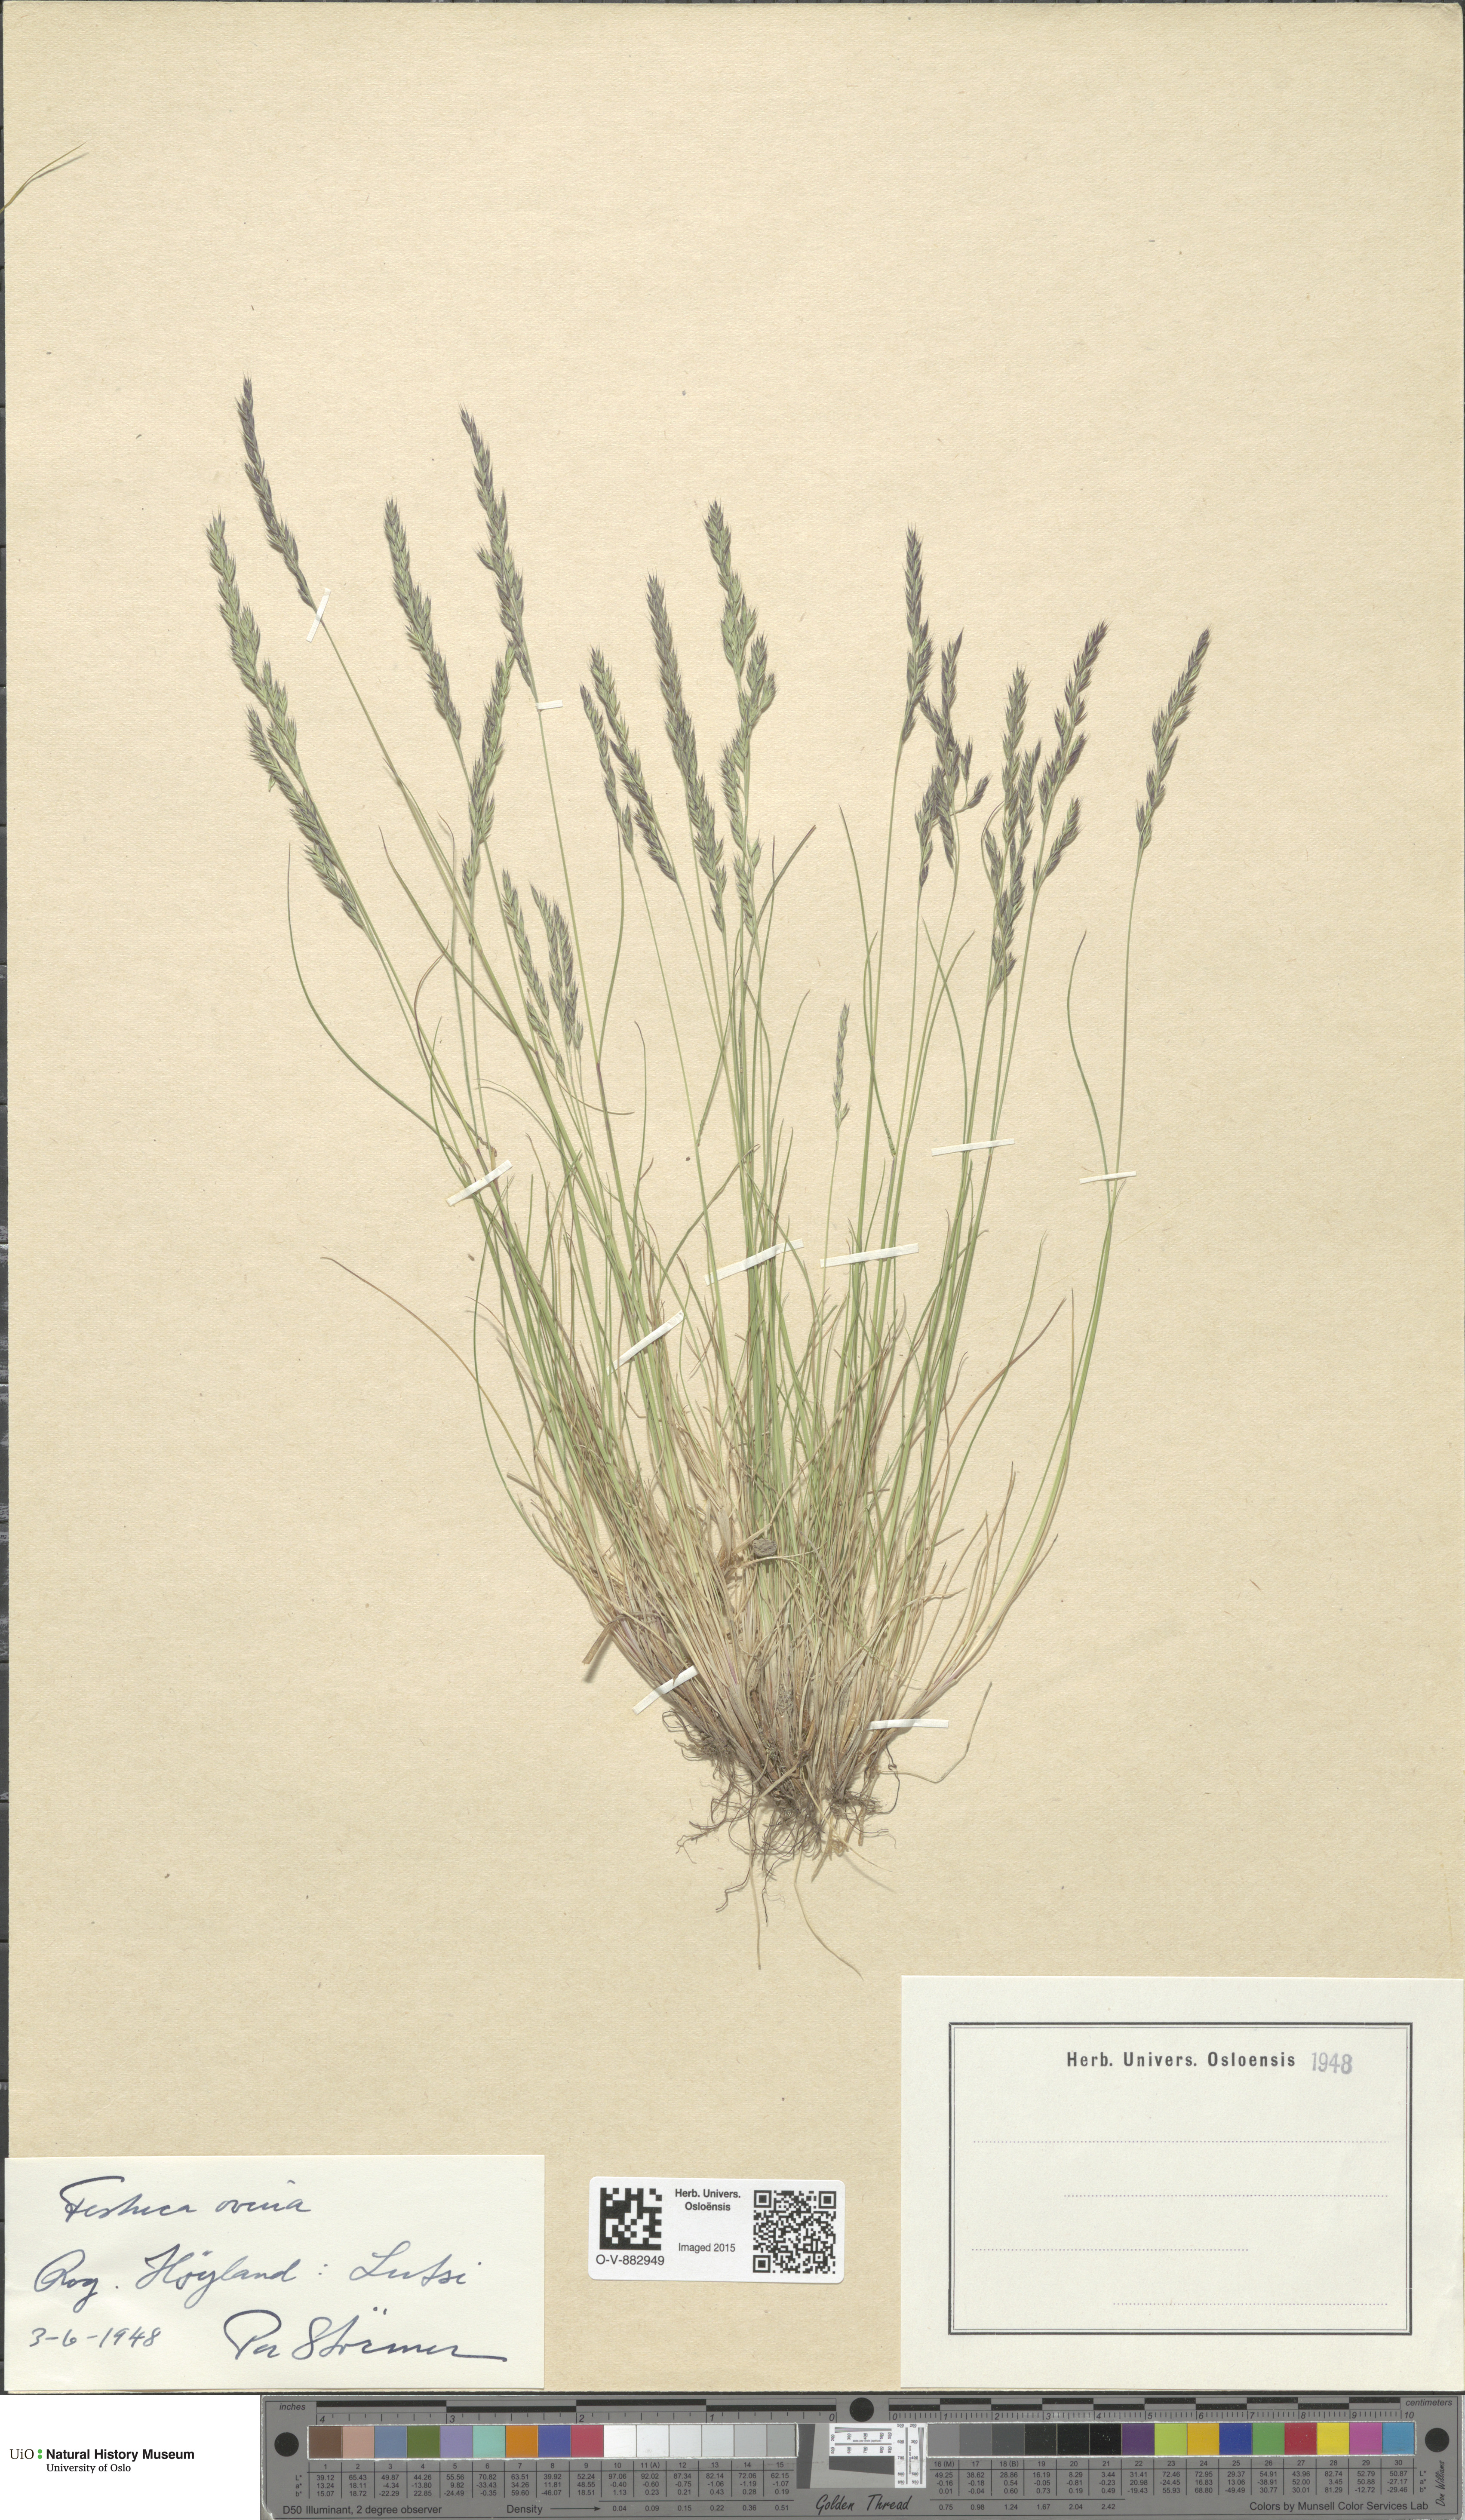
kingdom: Plantae
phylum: Tracheophyta
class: Liliopsida
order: Poales
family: Poaceae
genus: Festuca
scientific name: Festuca ovina
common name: Sheep fescue
